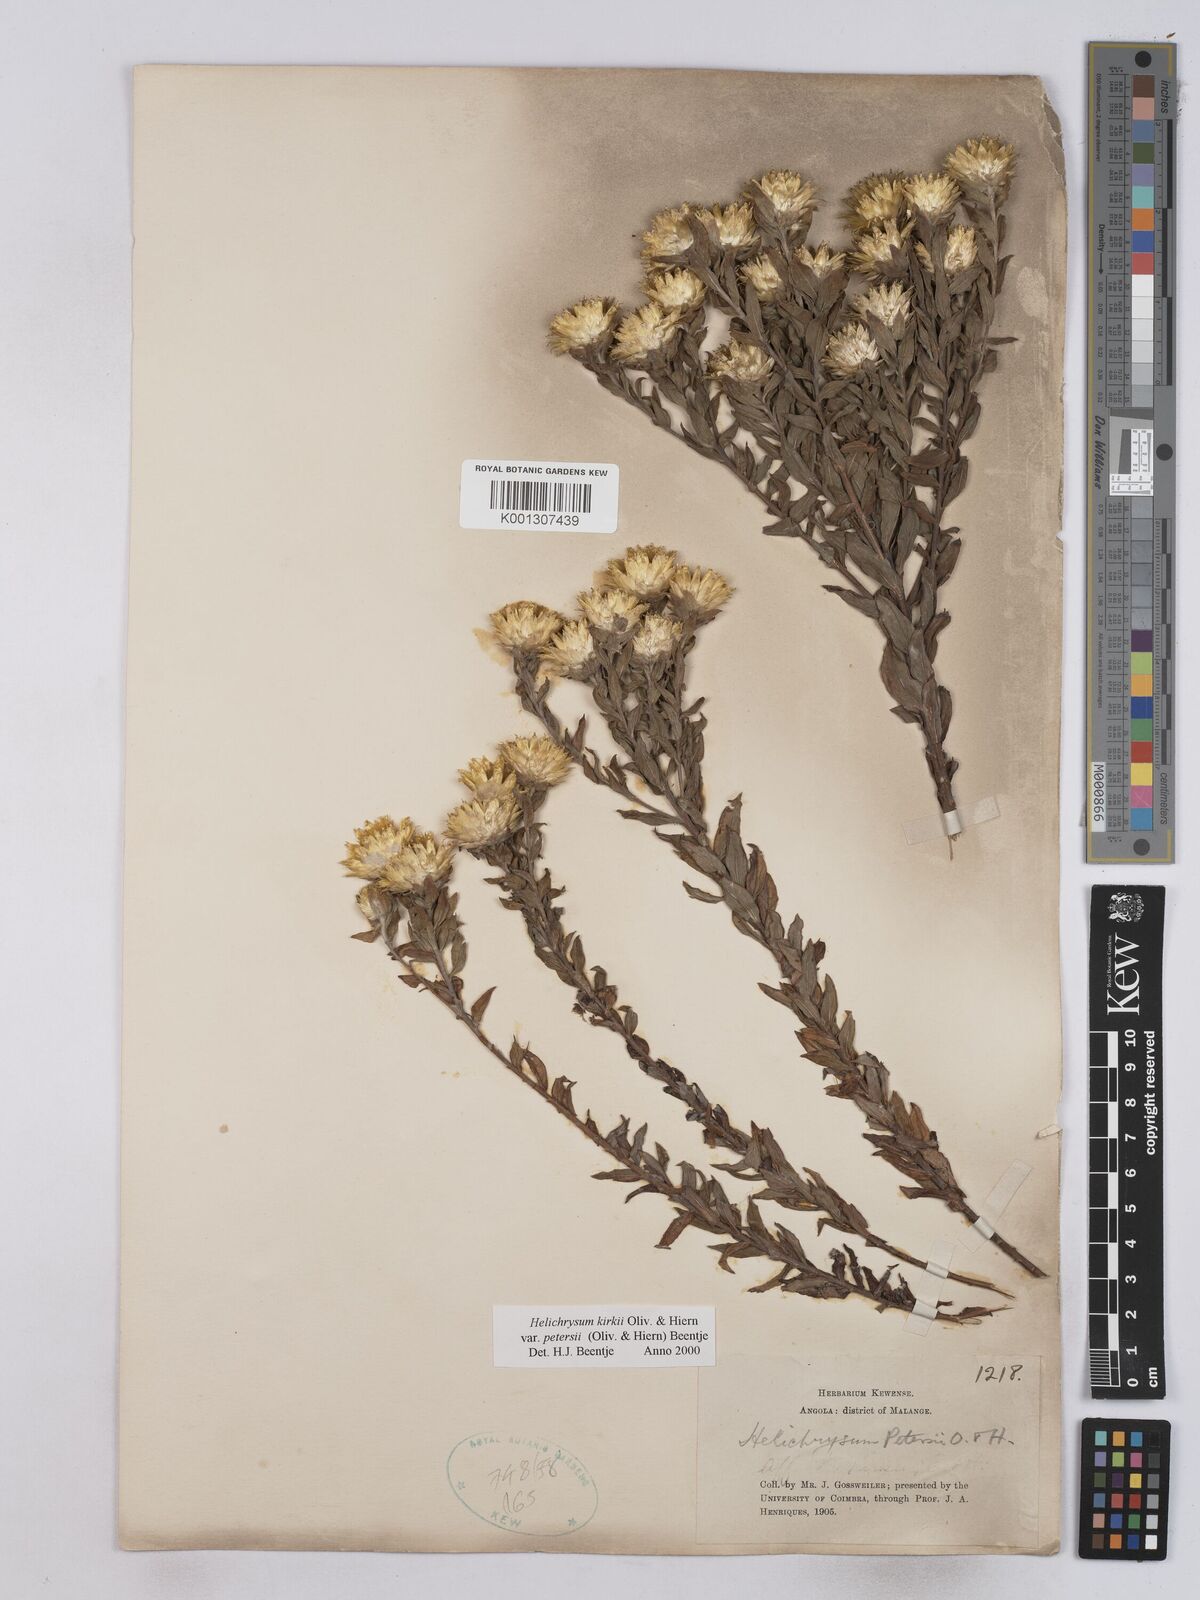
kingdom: Plantae
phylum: Tracheophyta
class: Magnoliopsida
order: Asterales
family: Asteraceae
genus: Helichrysum
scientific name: Helichrysum kirkii
